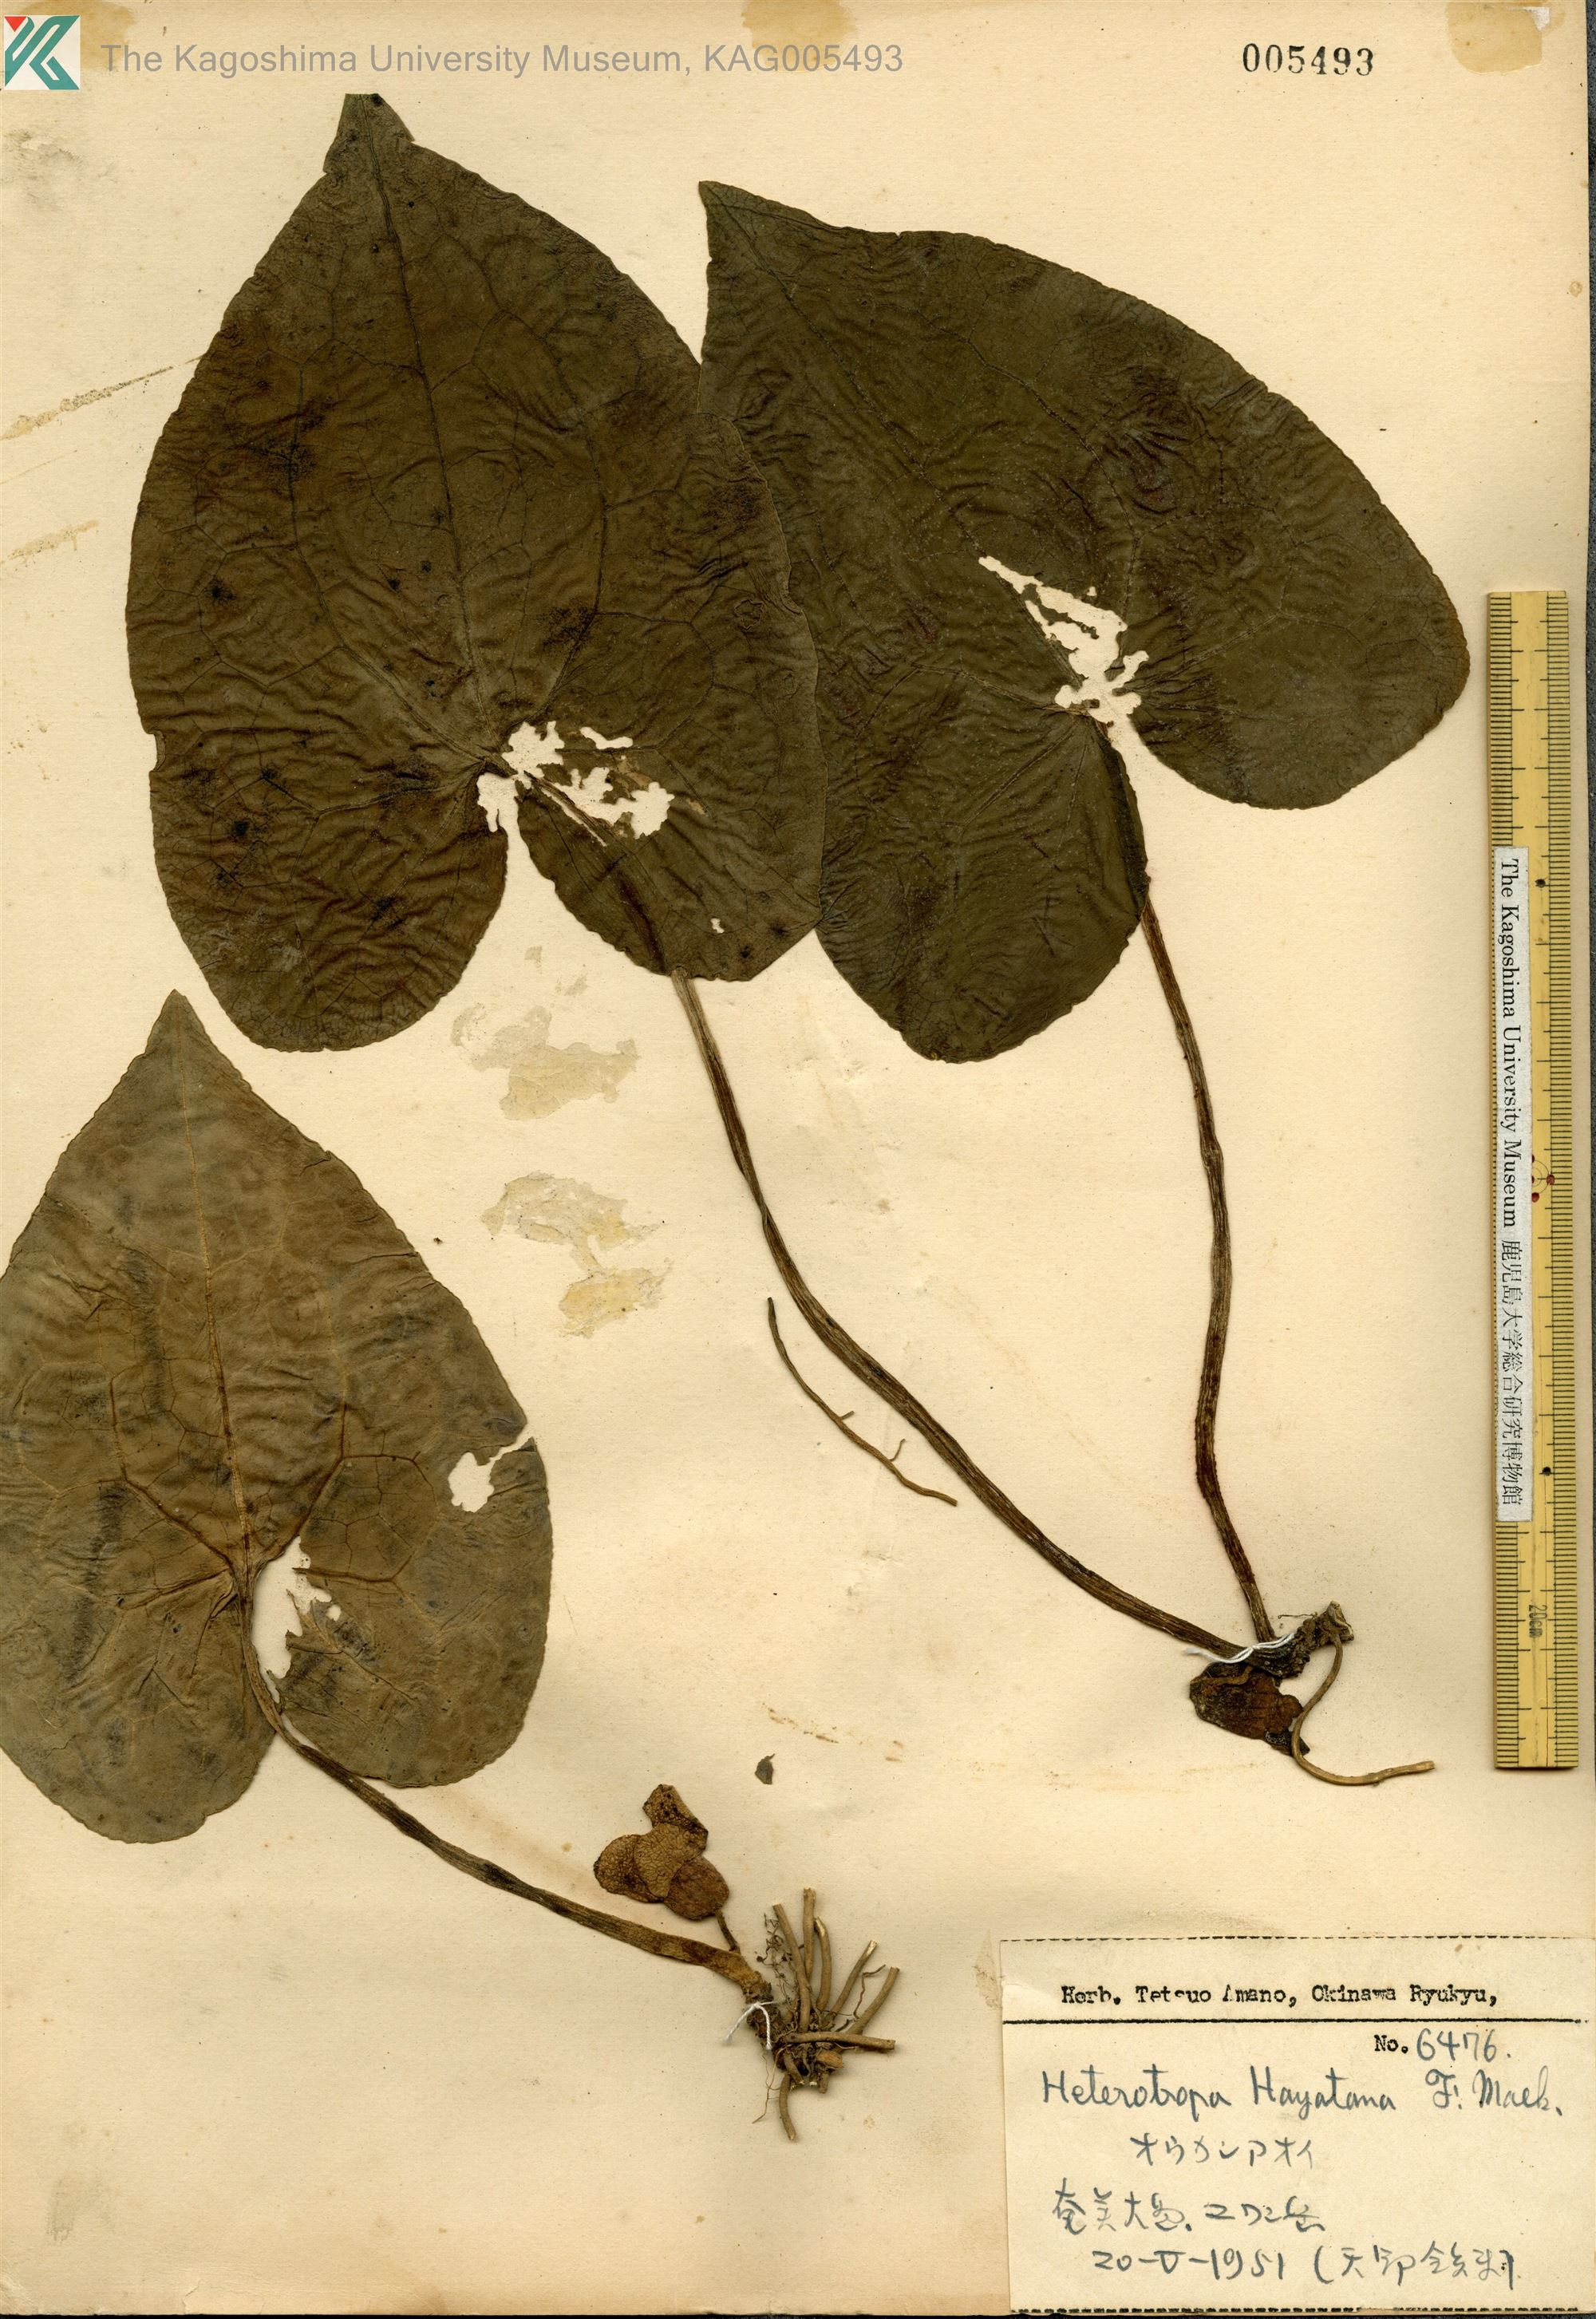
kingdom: Plantae
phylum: Tracheophyta
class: Magnoliopsida
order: Piperales
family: Aristolochiaceae
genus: Asarum
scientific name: Asarum
